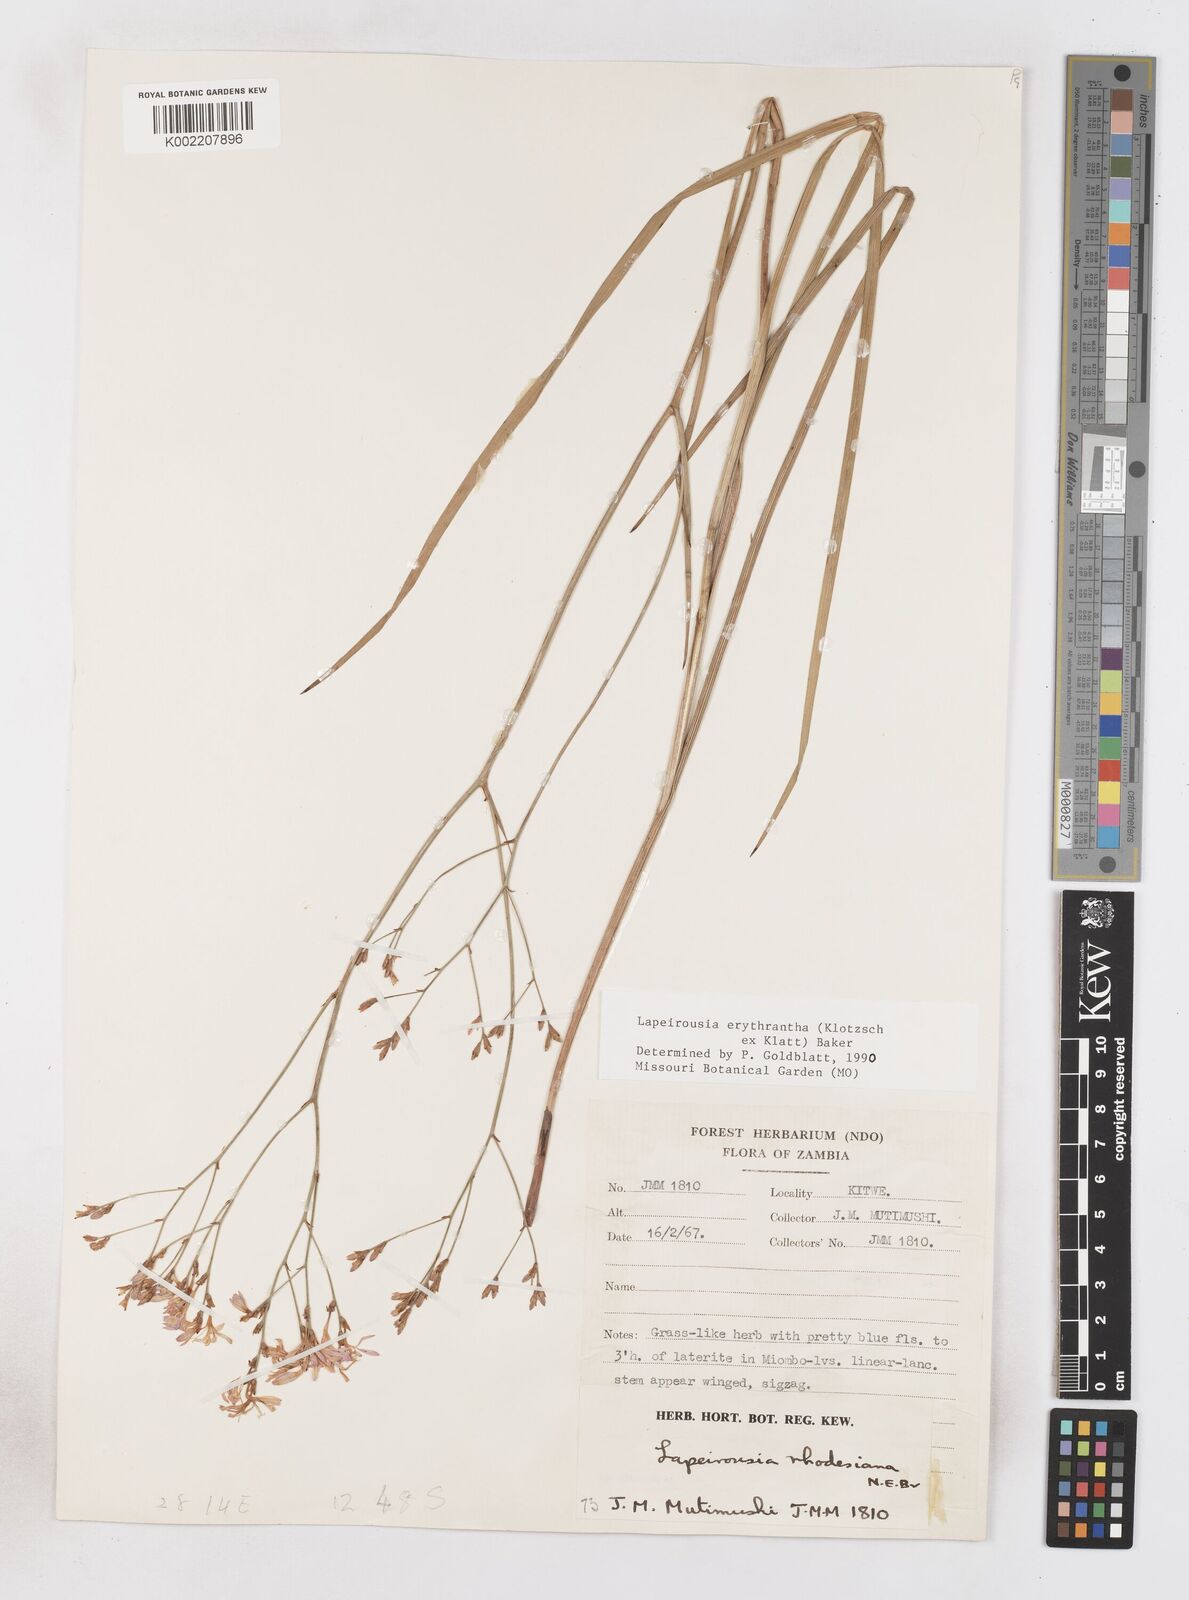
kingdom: Plantae
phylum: Tracheophyta
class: Liliopsida
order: Asparagales
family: Iridaceae
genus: Afrosolen
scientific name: Afrosolen erythranthus
